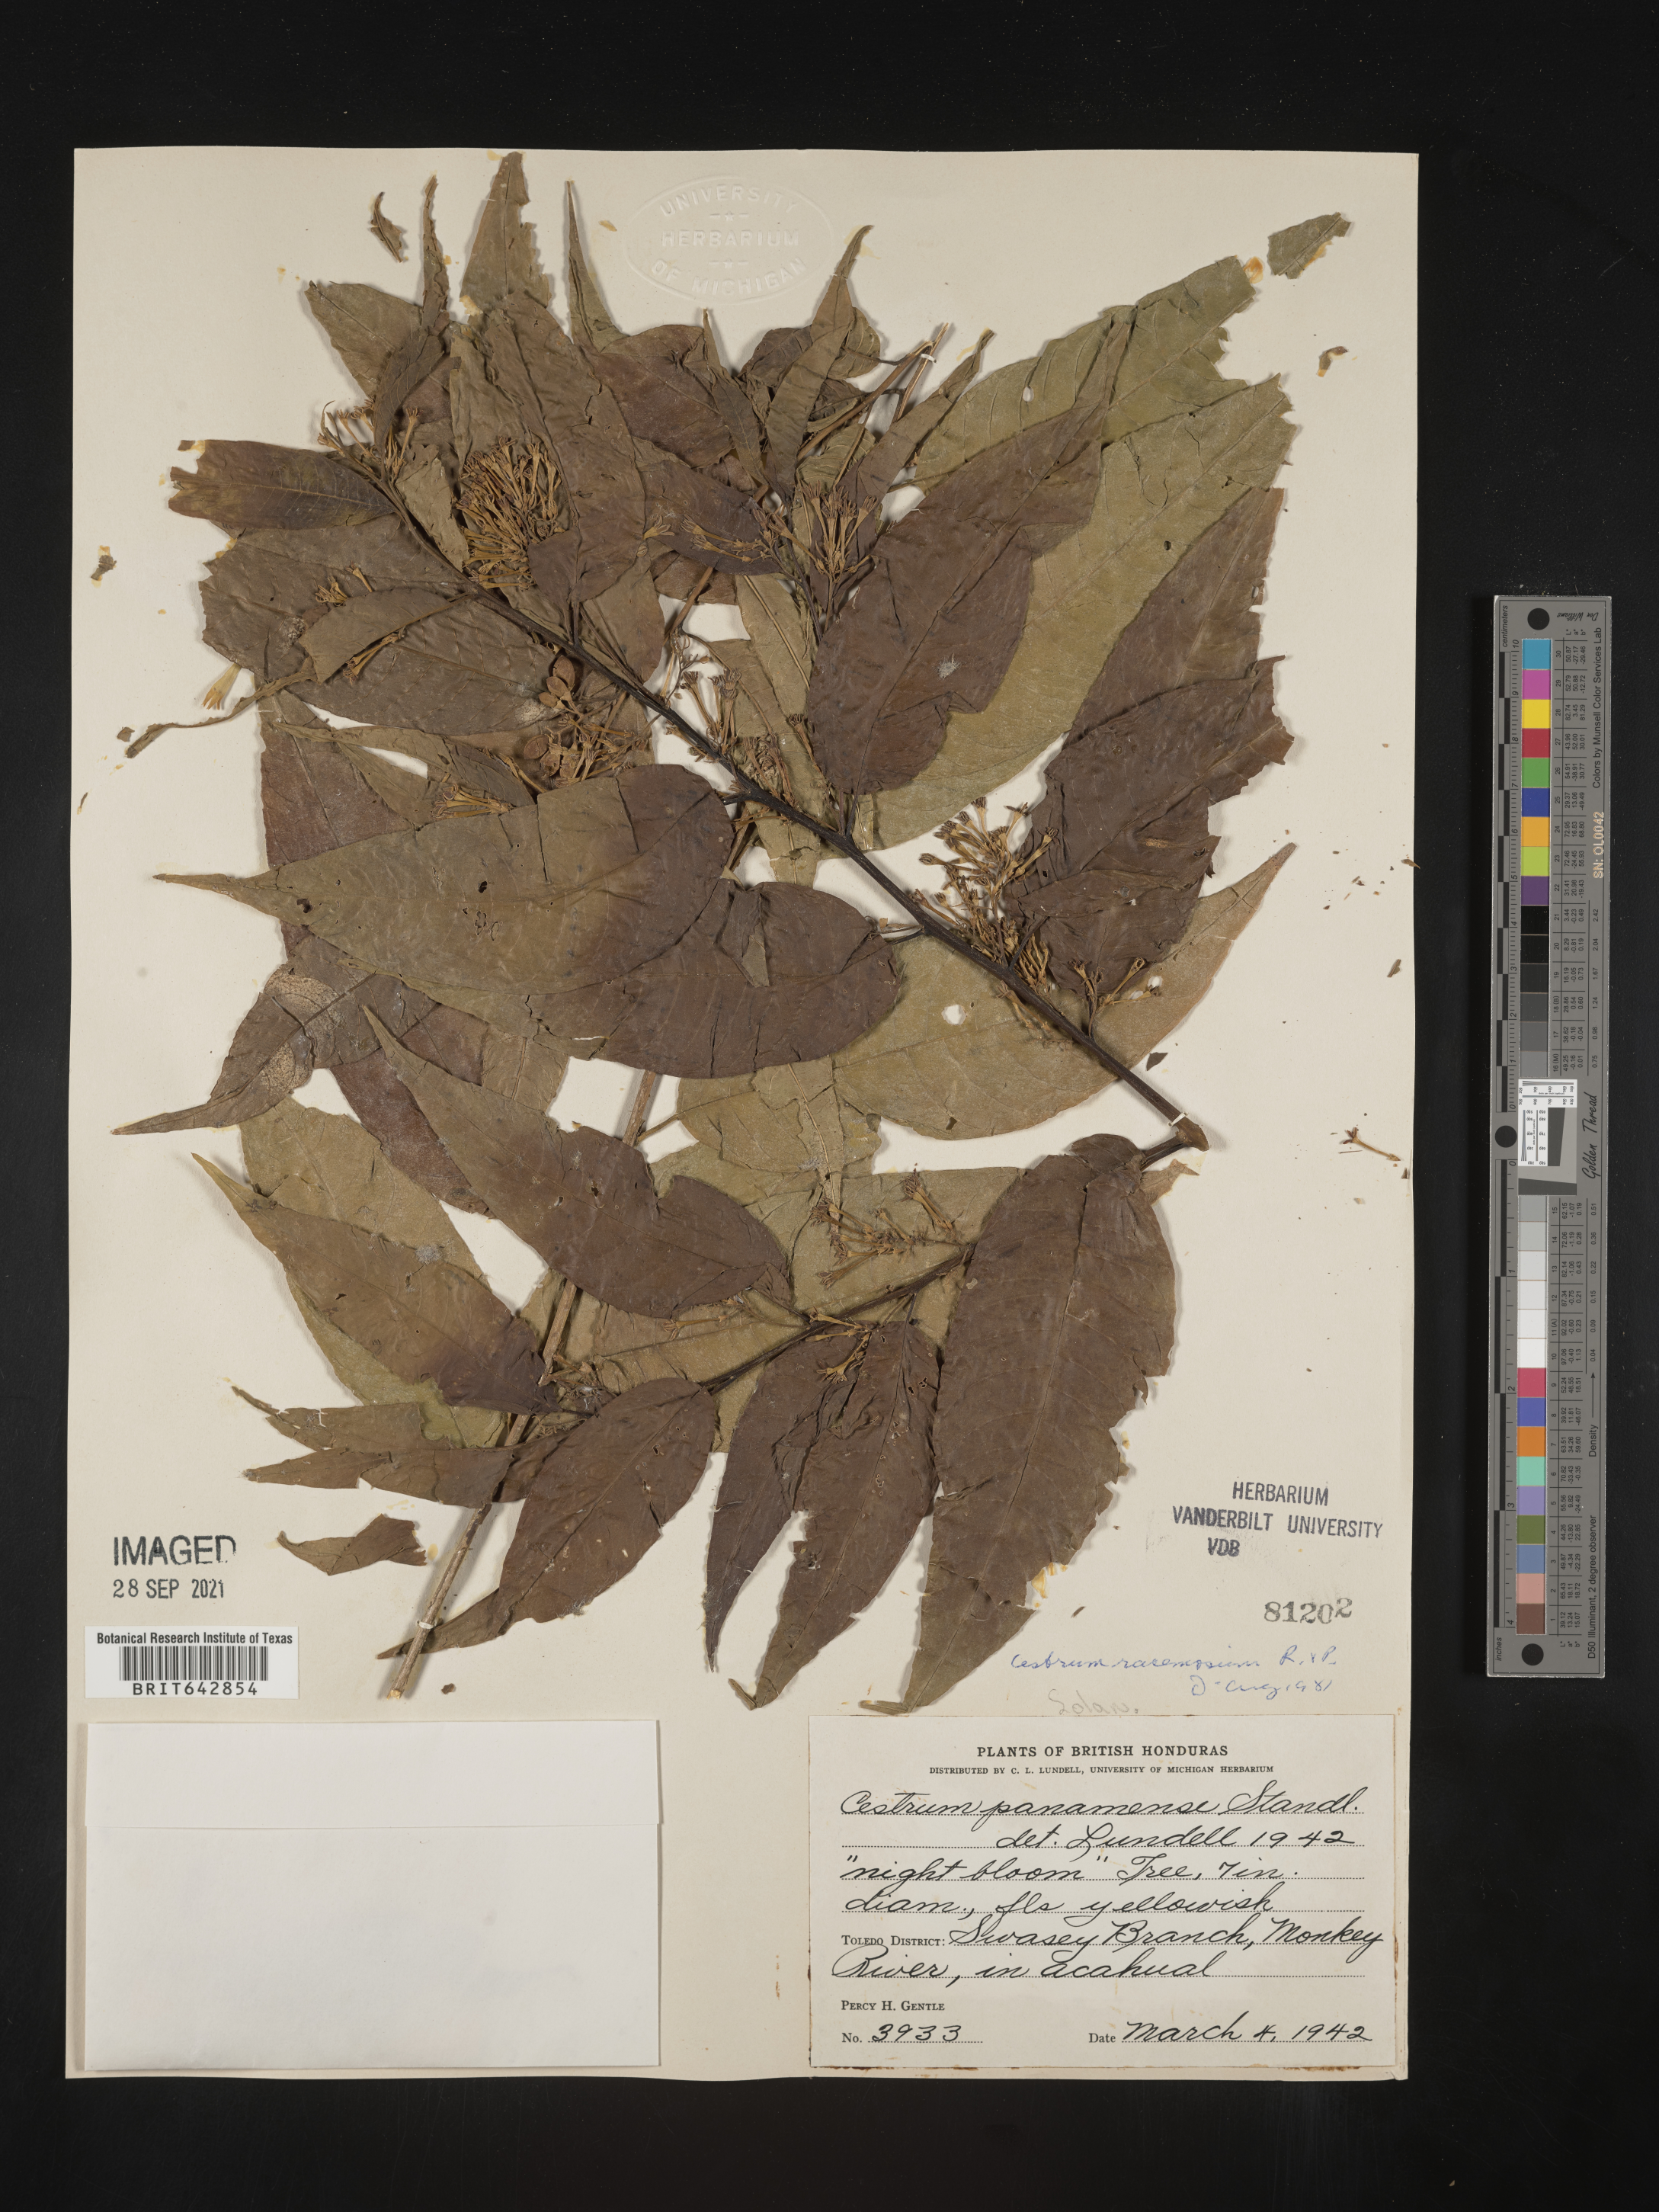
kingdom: Plantae
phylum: Tracheophyta
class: Magnoliopsida
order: Solanales
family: Solanaceae
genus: Cestrum
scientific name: Cestrum
